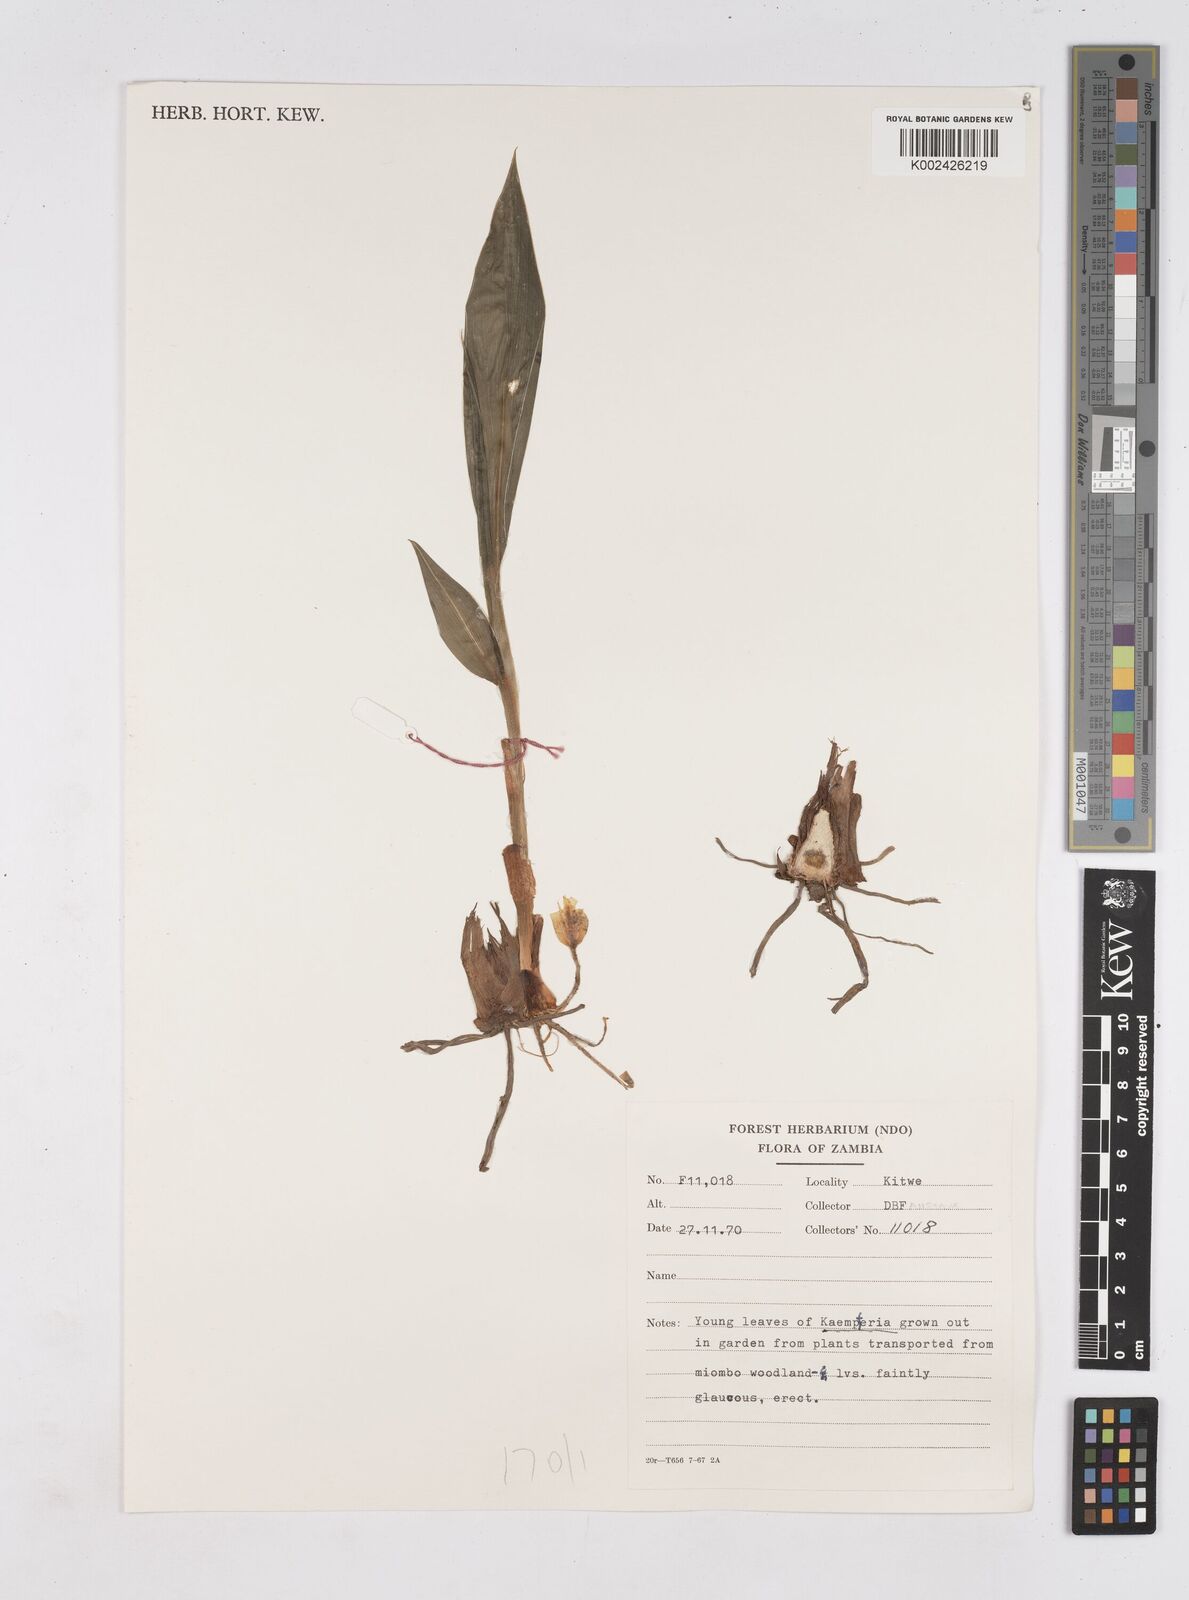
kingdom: Plantae
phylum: Tracheophyta
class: Liliopsida
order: Zingiberales
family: Zingiberaceae
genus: Siphonochilus
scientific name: Siphonochilus
